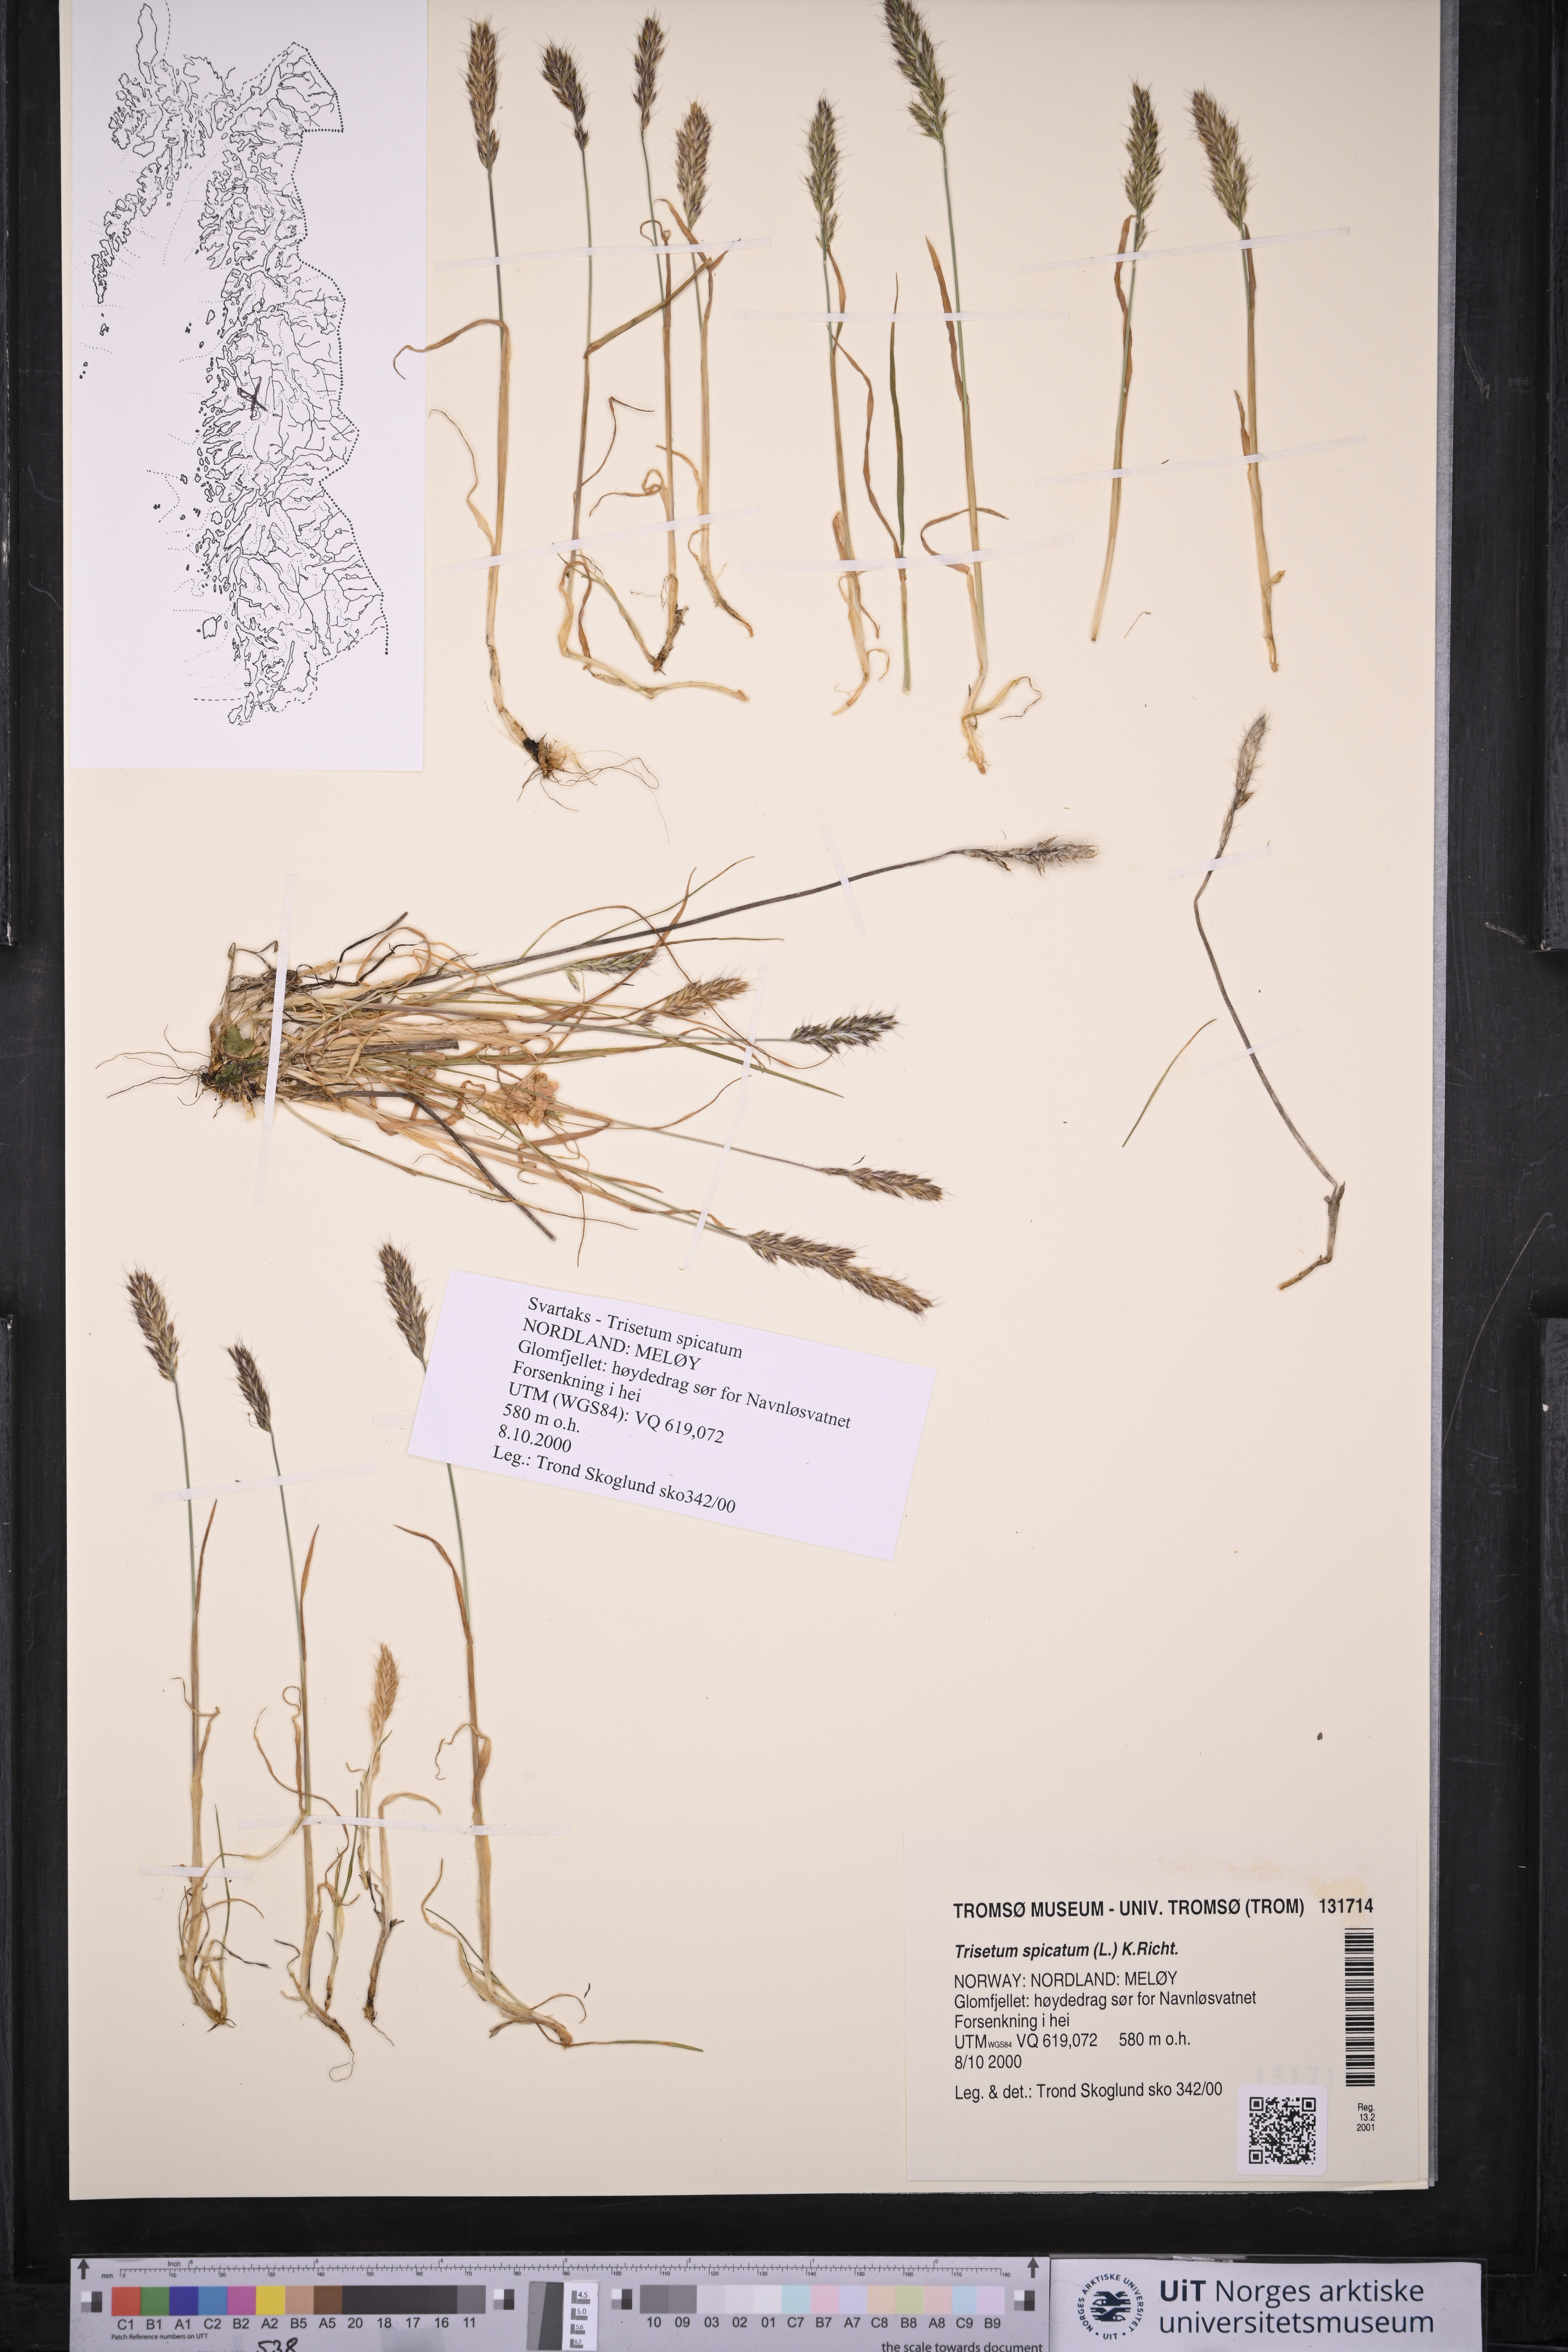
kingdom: Plantae
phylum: Tracheophyta
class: Liliopsida
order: Poales
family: Poaceae
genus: Koeleria
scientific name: Koeleria spicata
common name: Mountain trisetum
